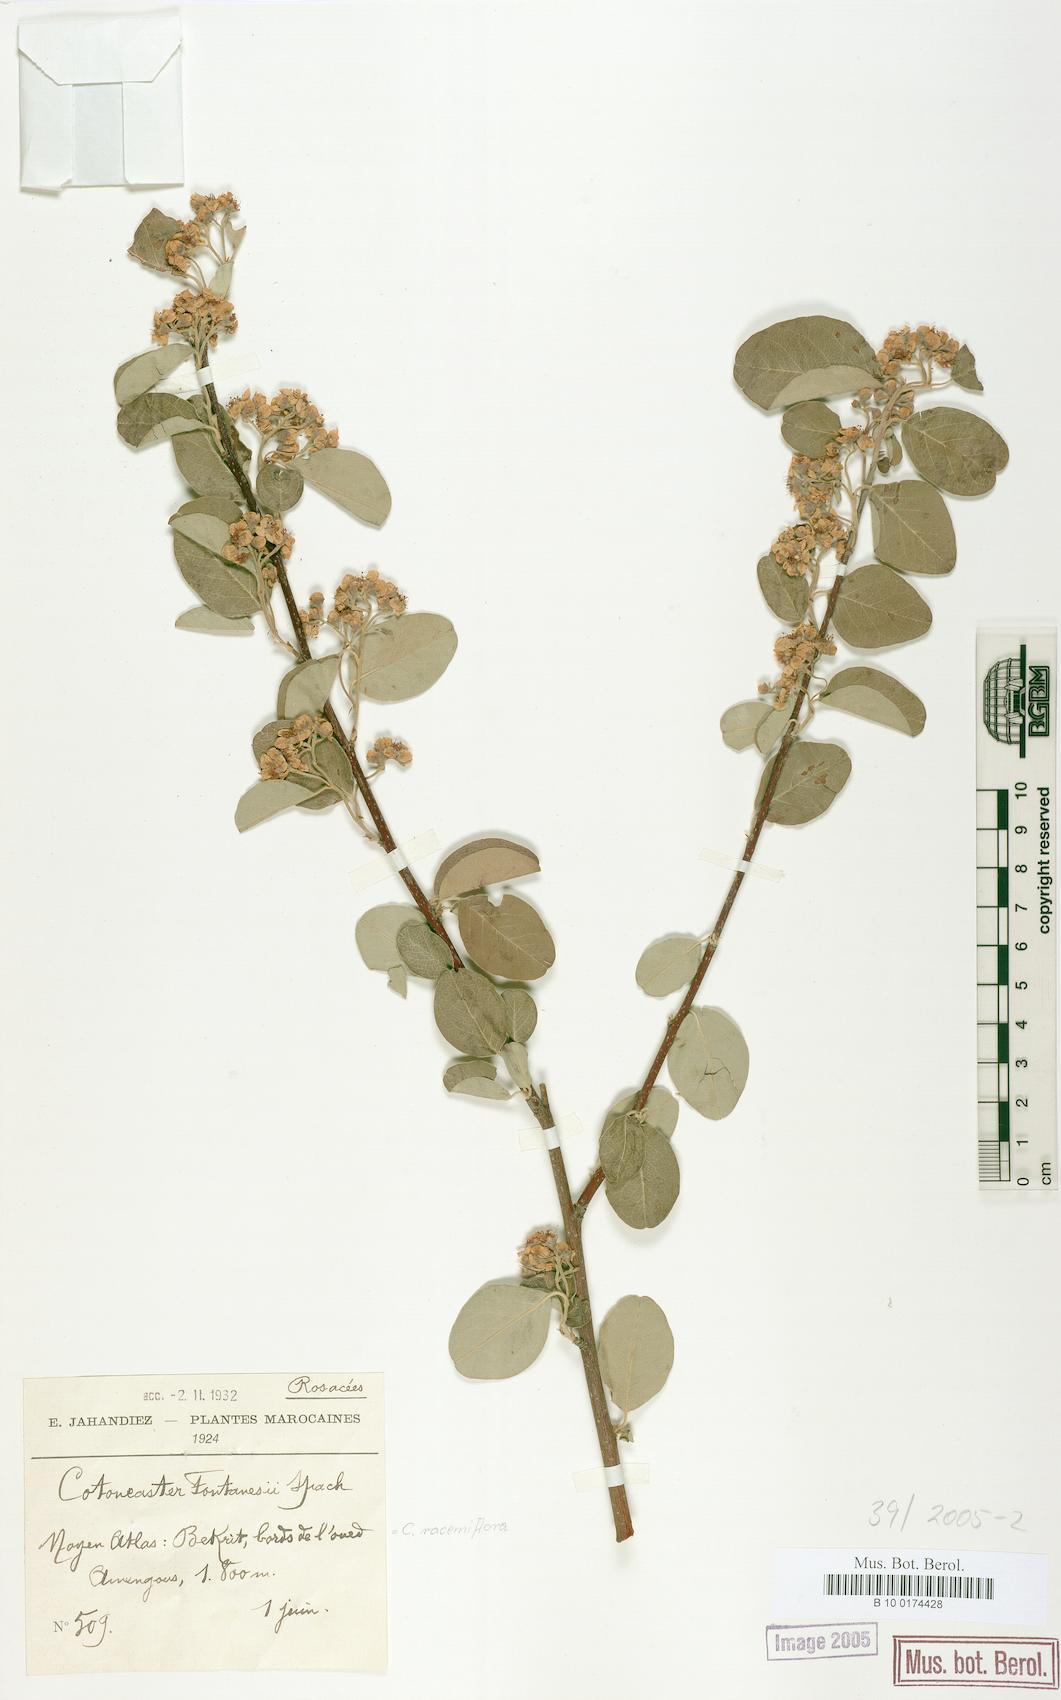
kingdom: Plantae
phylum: Tracheophyta
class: Magnoliopsida
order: Rosales
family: Rosaceae
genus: Cotoneaster
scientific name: Cotoneaster racemiflorus
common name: Cluster-flower cotoneaster
